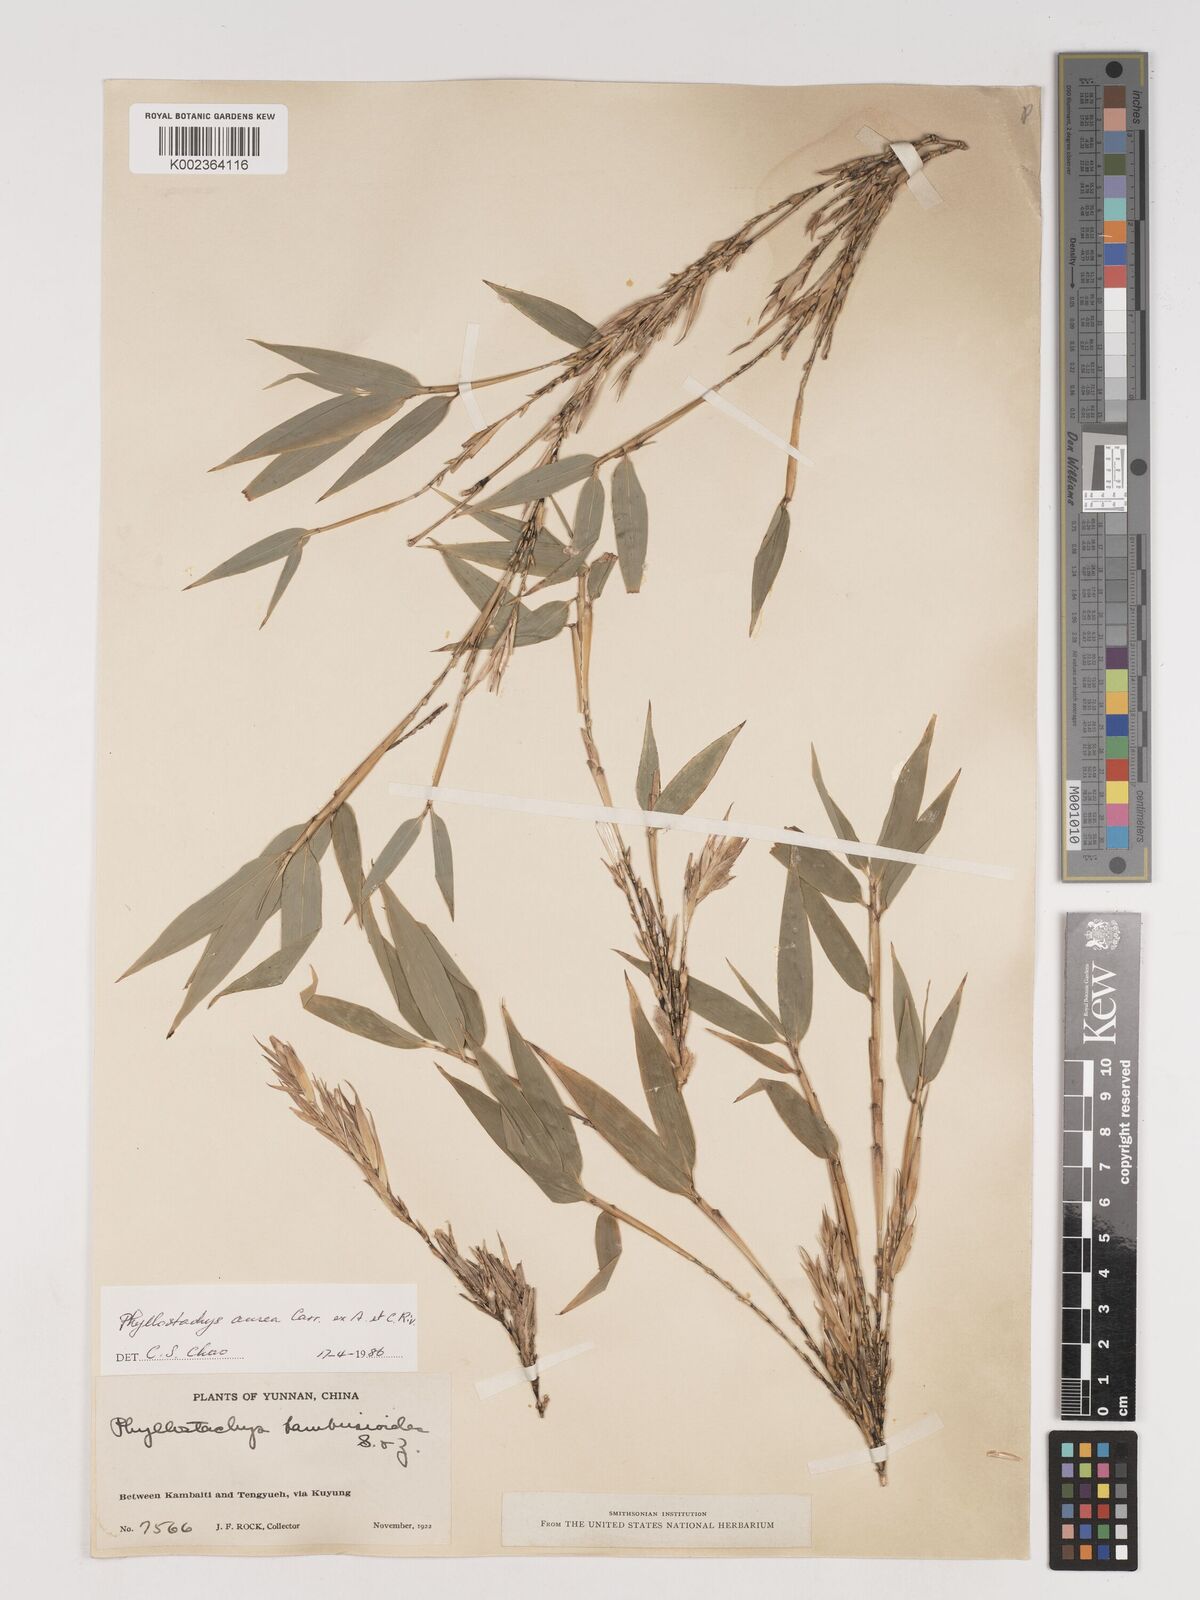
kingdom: Plantae
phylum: Tracheophyta
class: Liliopsida
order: Poales
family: Poaceae
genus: Phyllostachys
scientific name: Phyllostachys aurea
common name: Golden bamboo
